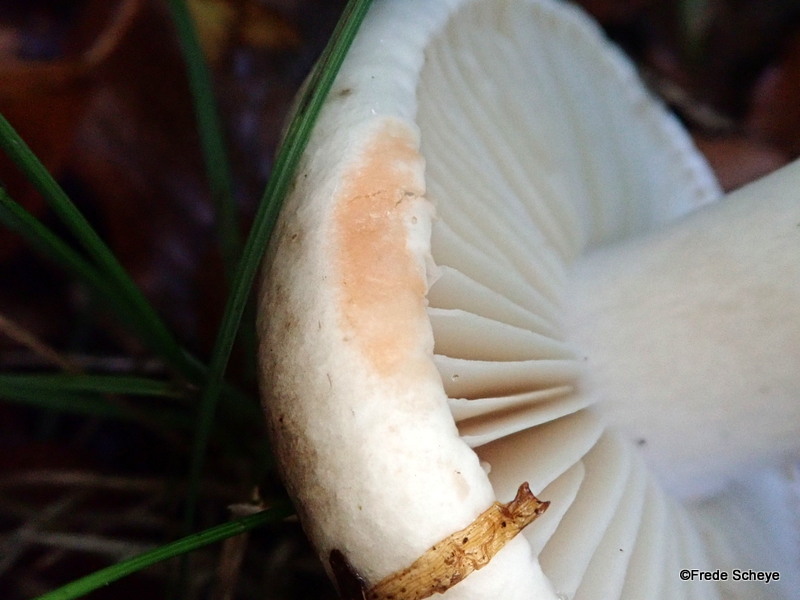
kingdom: Fungi
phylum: Basidiomycota
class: Agaricomycetes
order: Russulales
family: Russulaceae
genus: Russula
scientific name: Russula adusta
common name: sværtende skørhat
